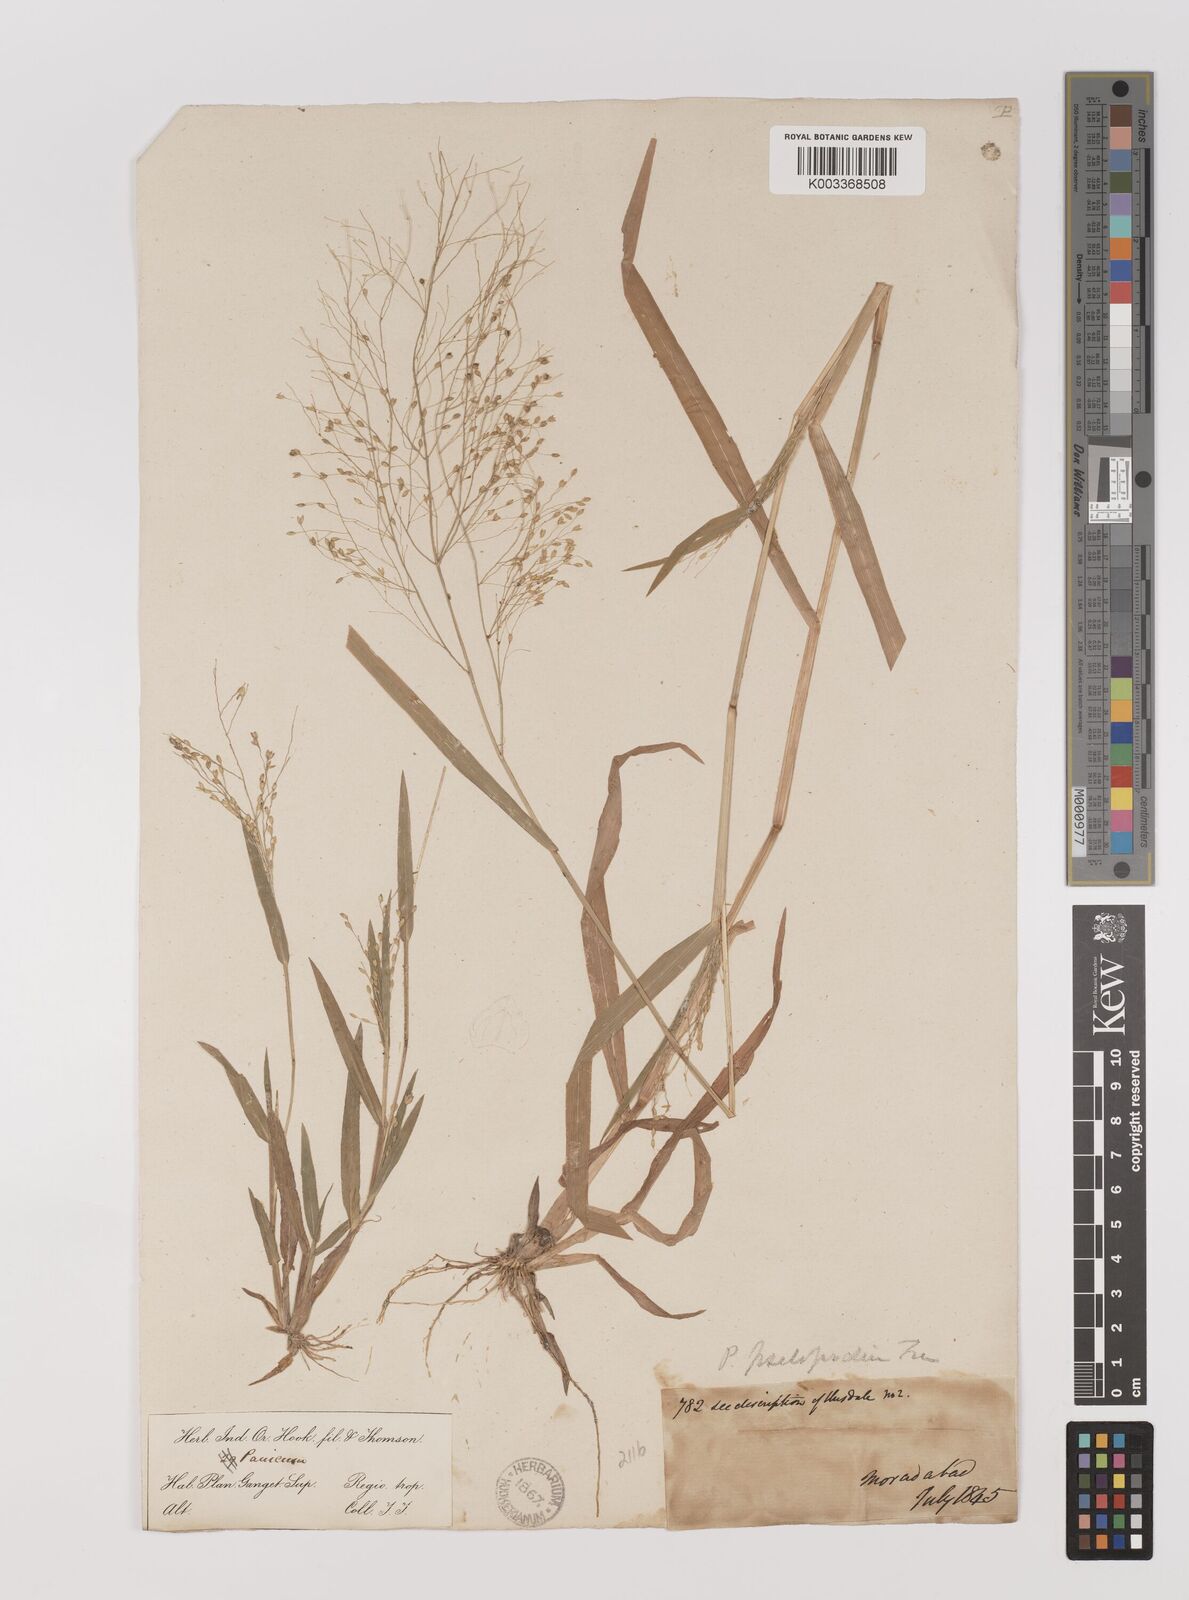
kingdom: Plantae
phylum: Tracheophyta
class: Liliopsida
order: Poales
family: Poaceae
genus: Panicum
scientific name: Panicum sumatrense
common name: Little millet
